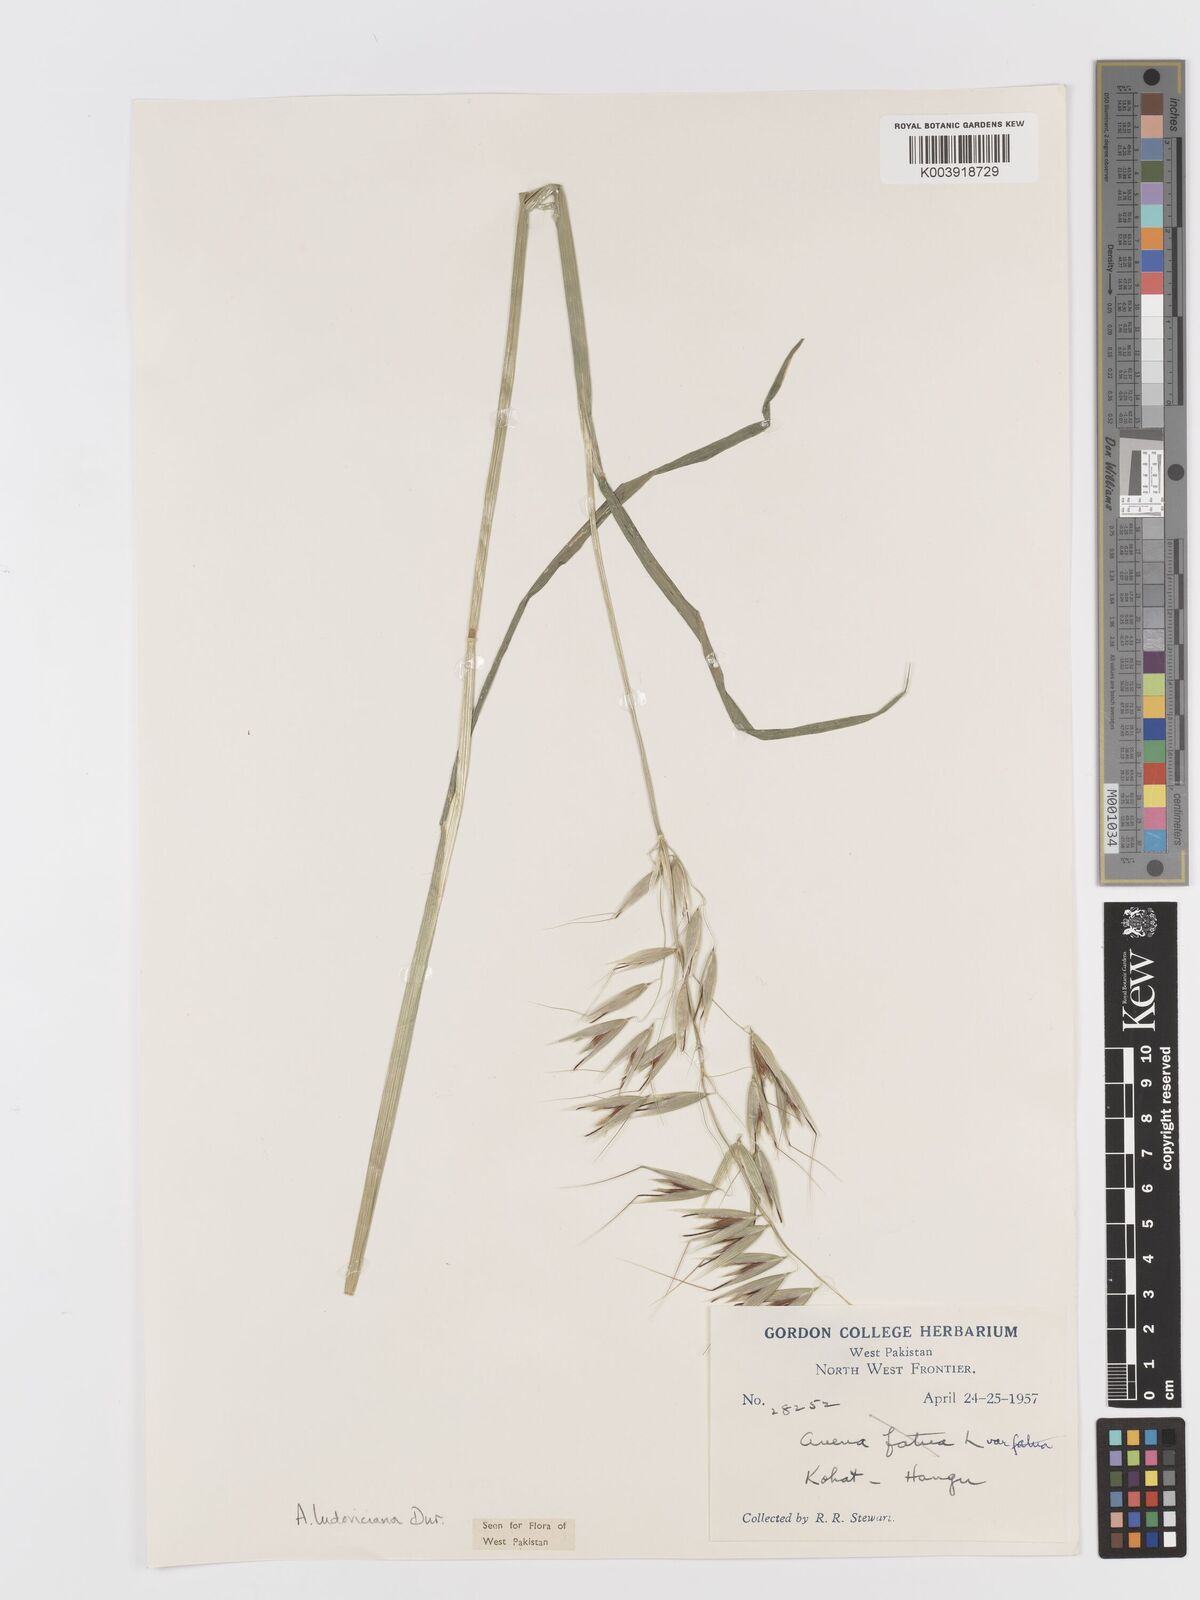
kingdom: Plantae
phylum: Tracheophyta
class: Liliopsida
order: Poales
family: Poaceae
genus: Avena
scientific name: Avena sterilis
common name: Animated oat
